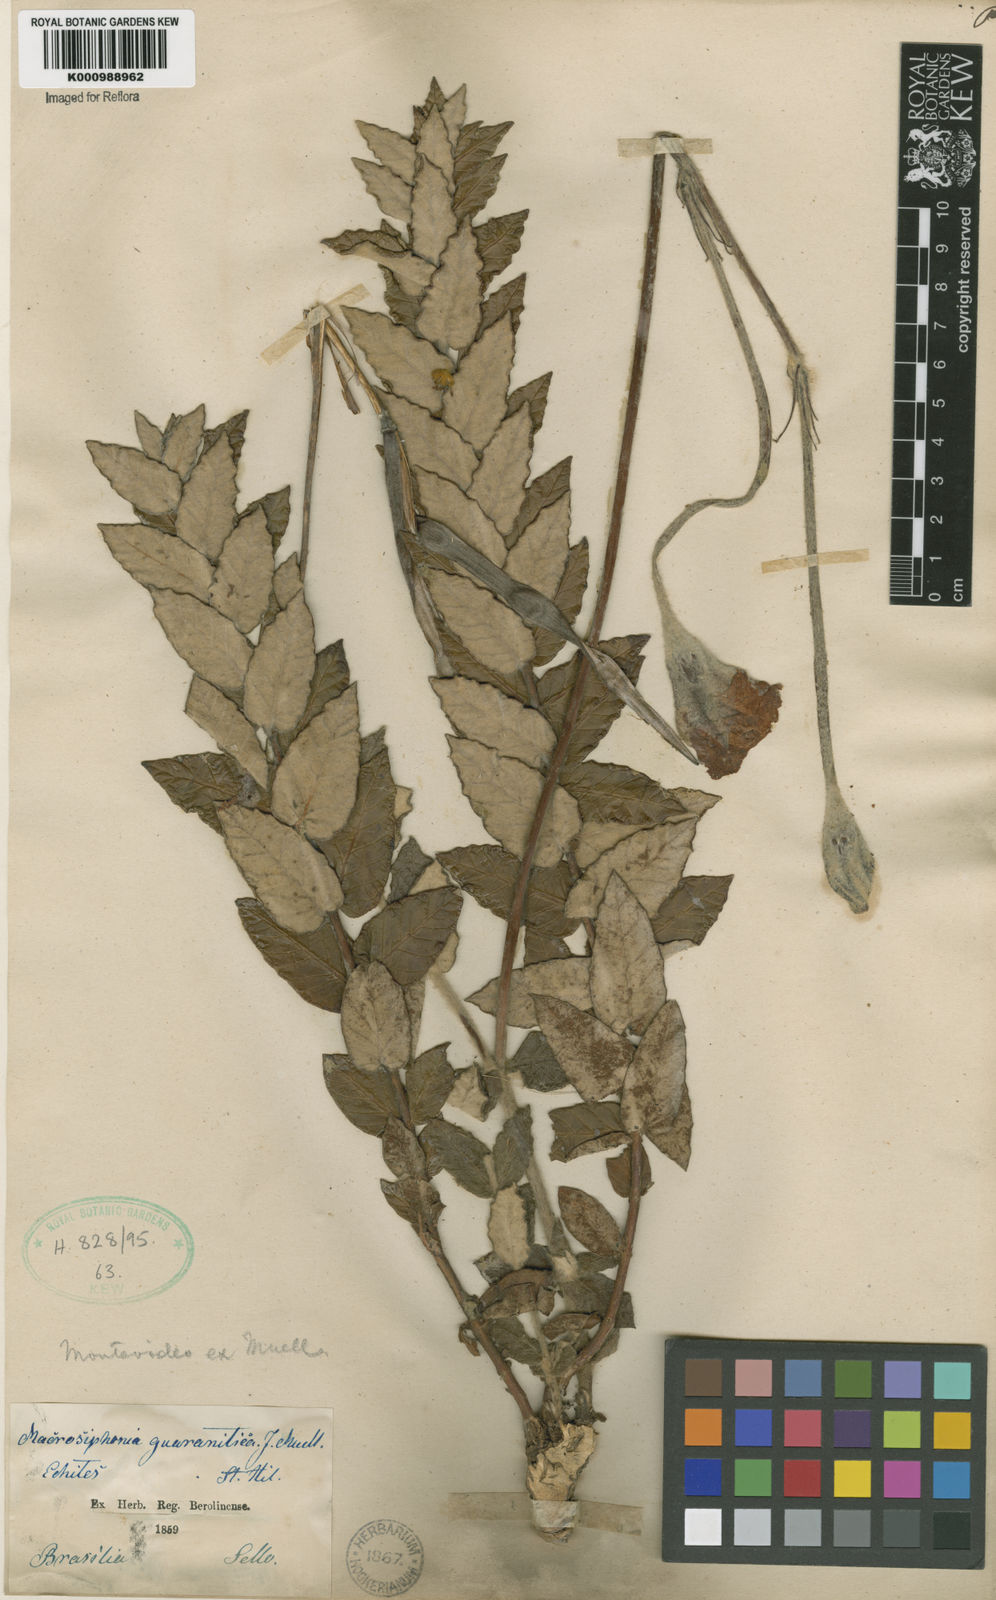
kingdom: Plantae
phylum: Tracheophyta
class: Magnoliopsida
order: Gentianales
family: Apocynaceae
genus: Mandevilla
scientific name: Mandevilla longiflora
